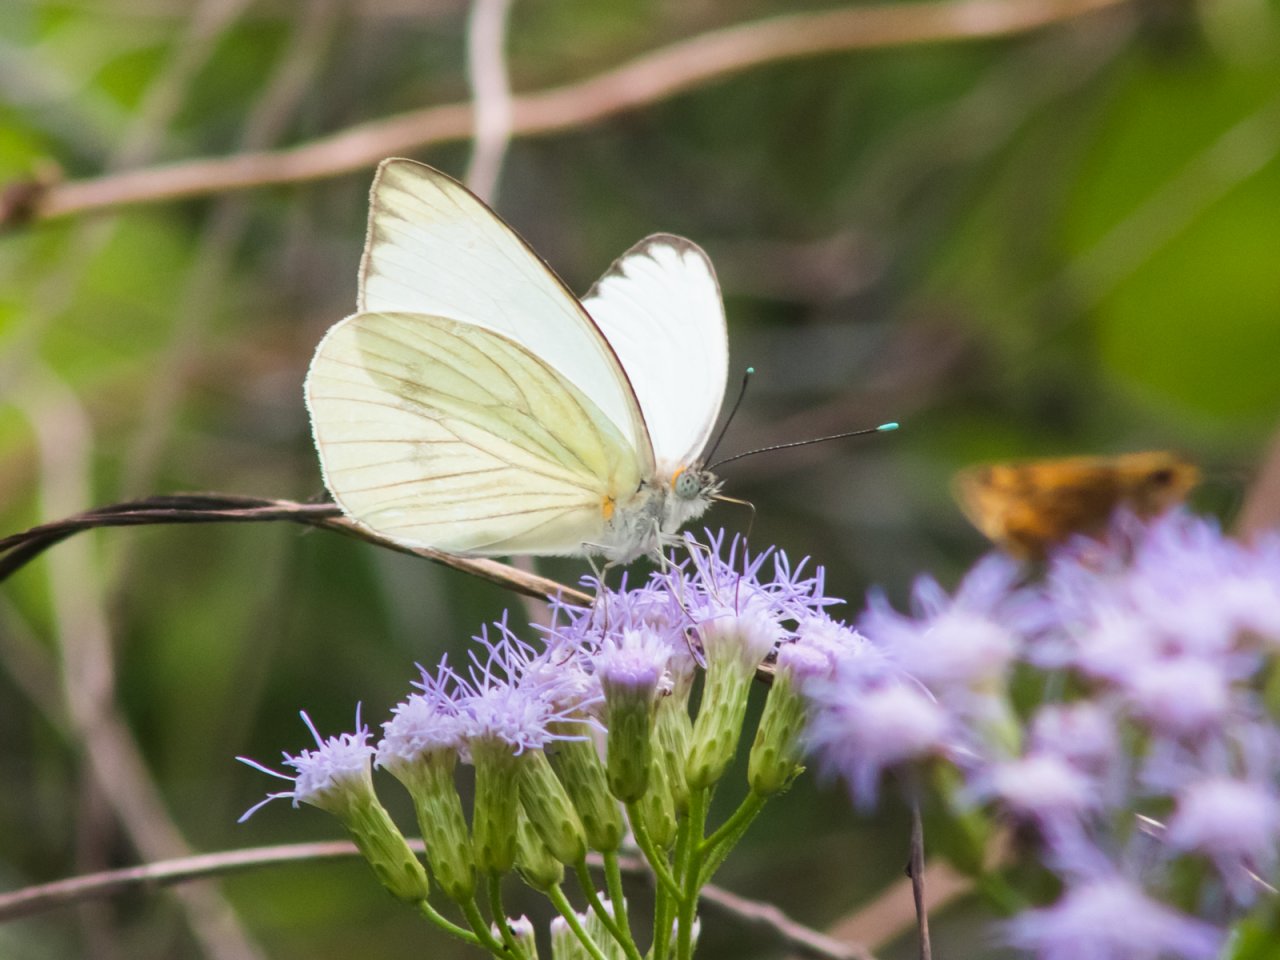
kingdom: Animalia
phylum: Arthropoda
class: Insecta
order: Lepidoptera
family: Pieridae
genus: Ascia
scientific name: Ascia monuste
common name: Great Southern White
